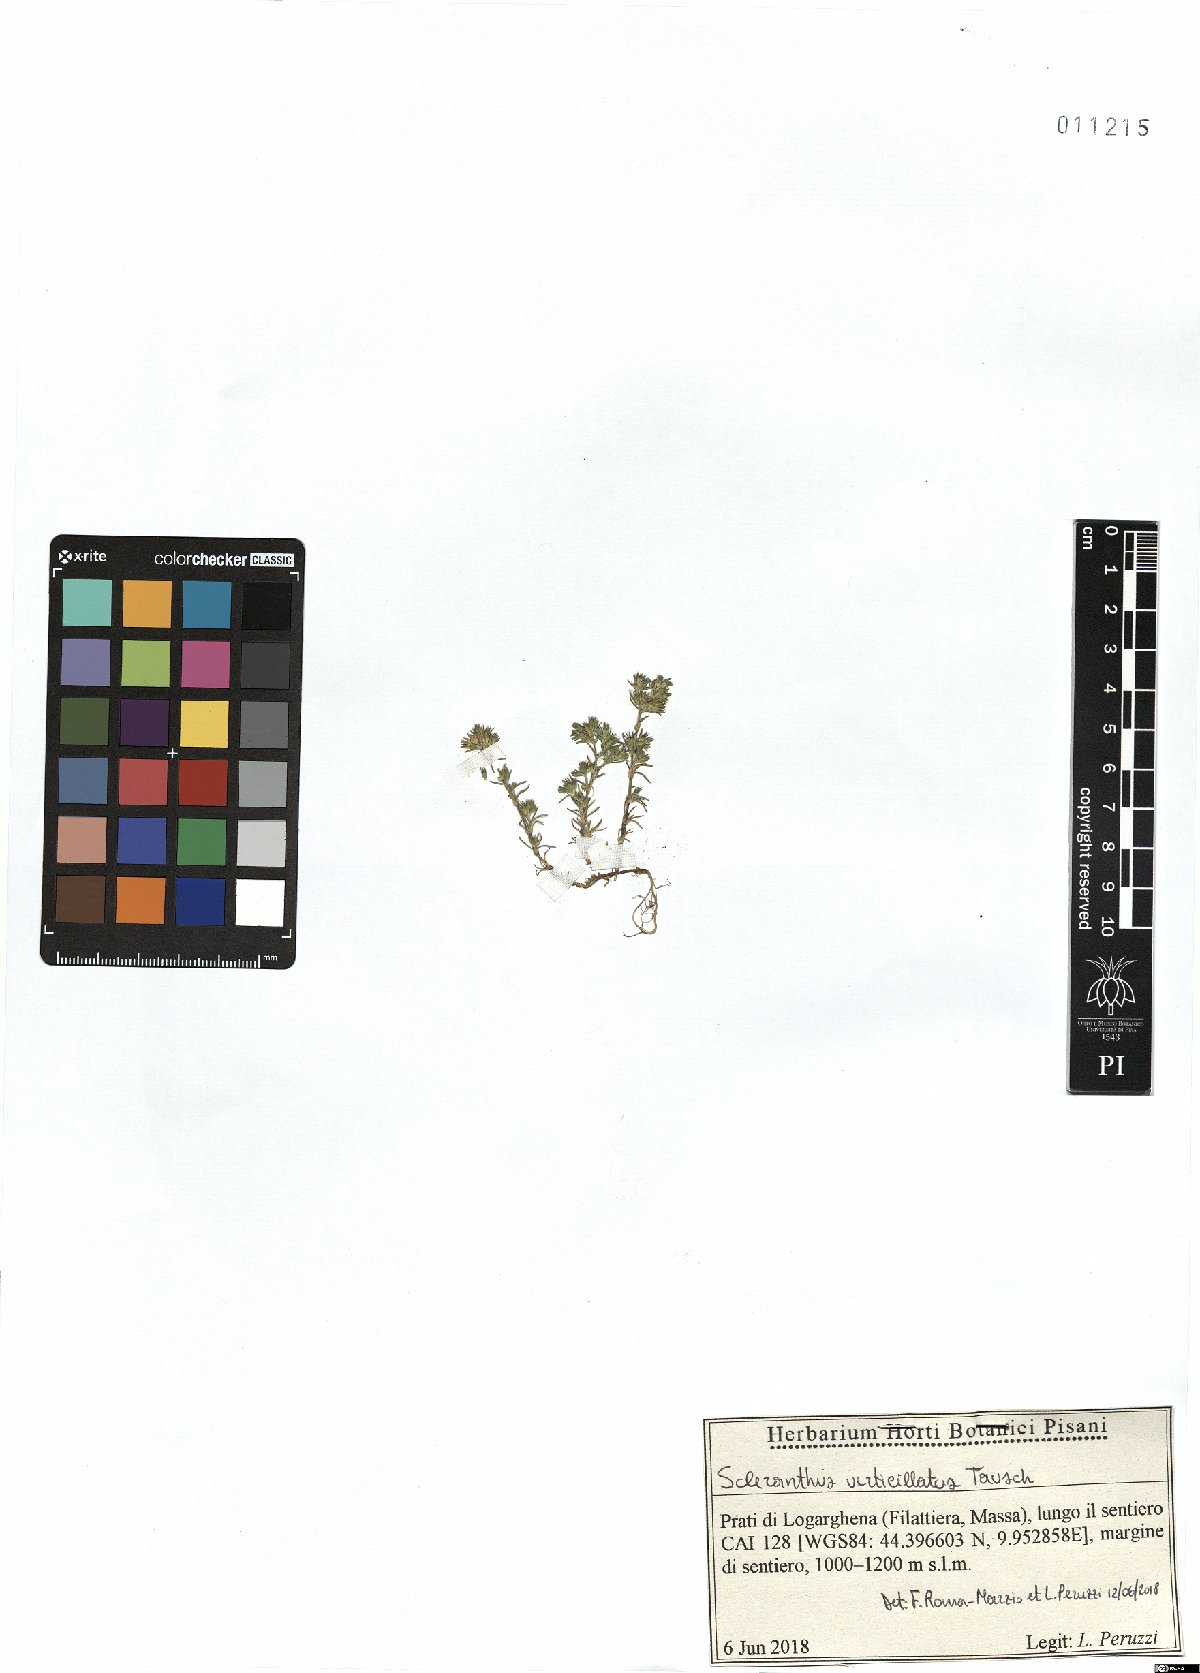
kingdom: Plantae
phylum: Tracheophyta
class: Magnoliopsida
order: Caryophyllales
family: Caryophyllaceae
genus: Scleranthus
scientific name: Scleranthus verticillatus
